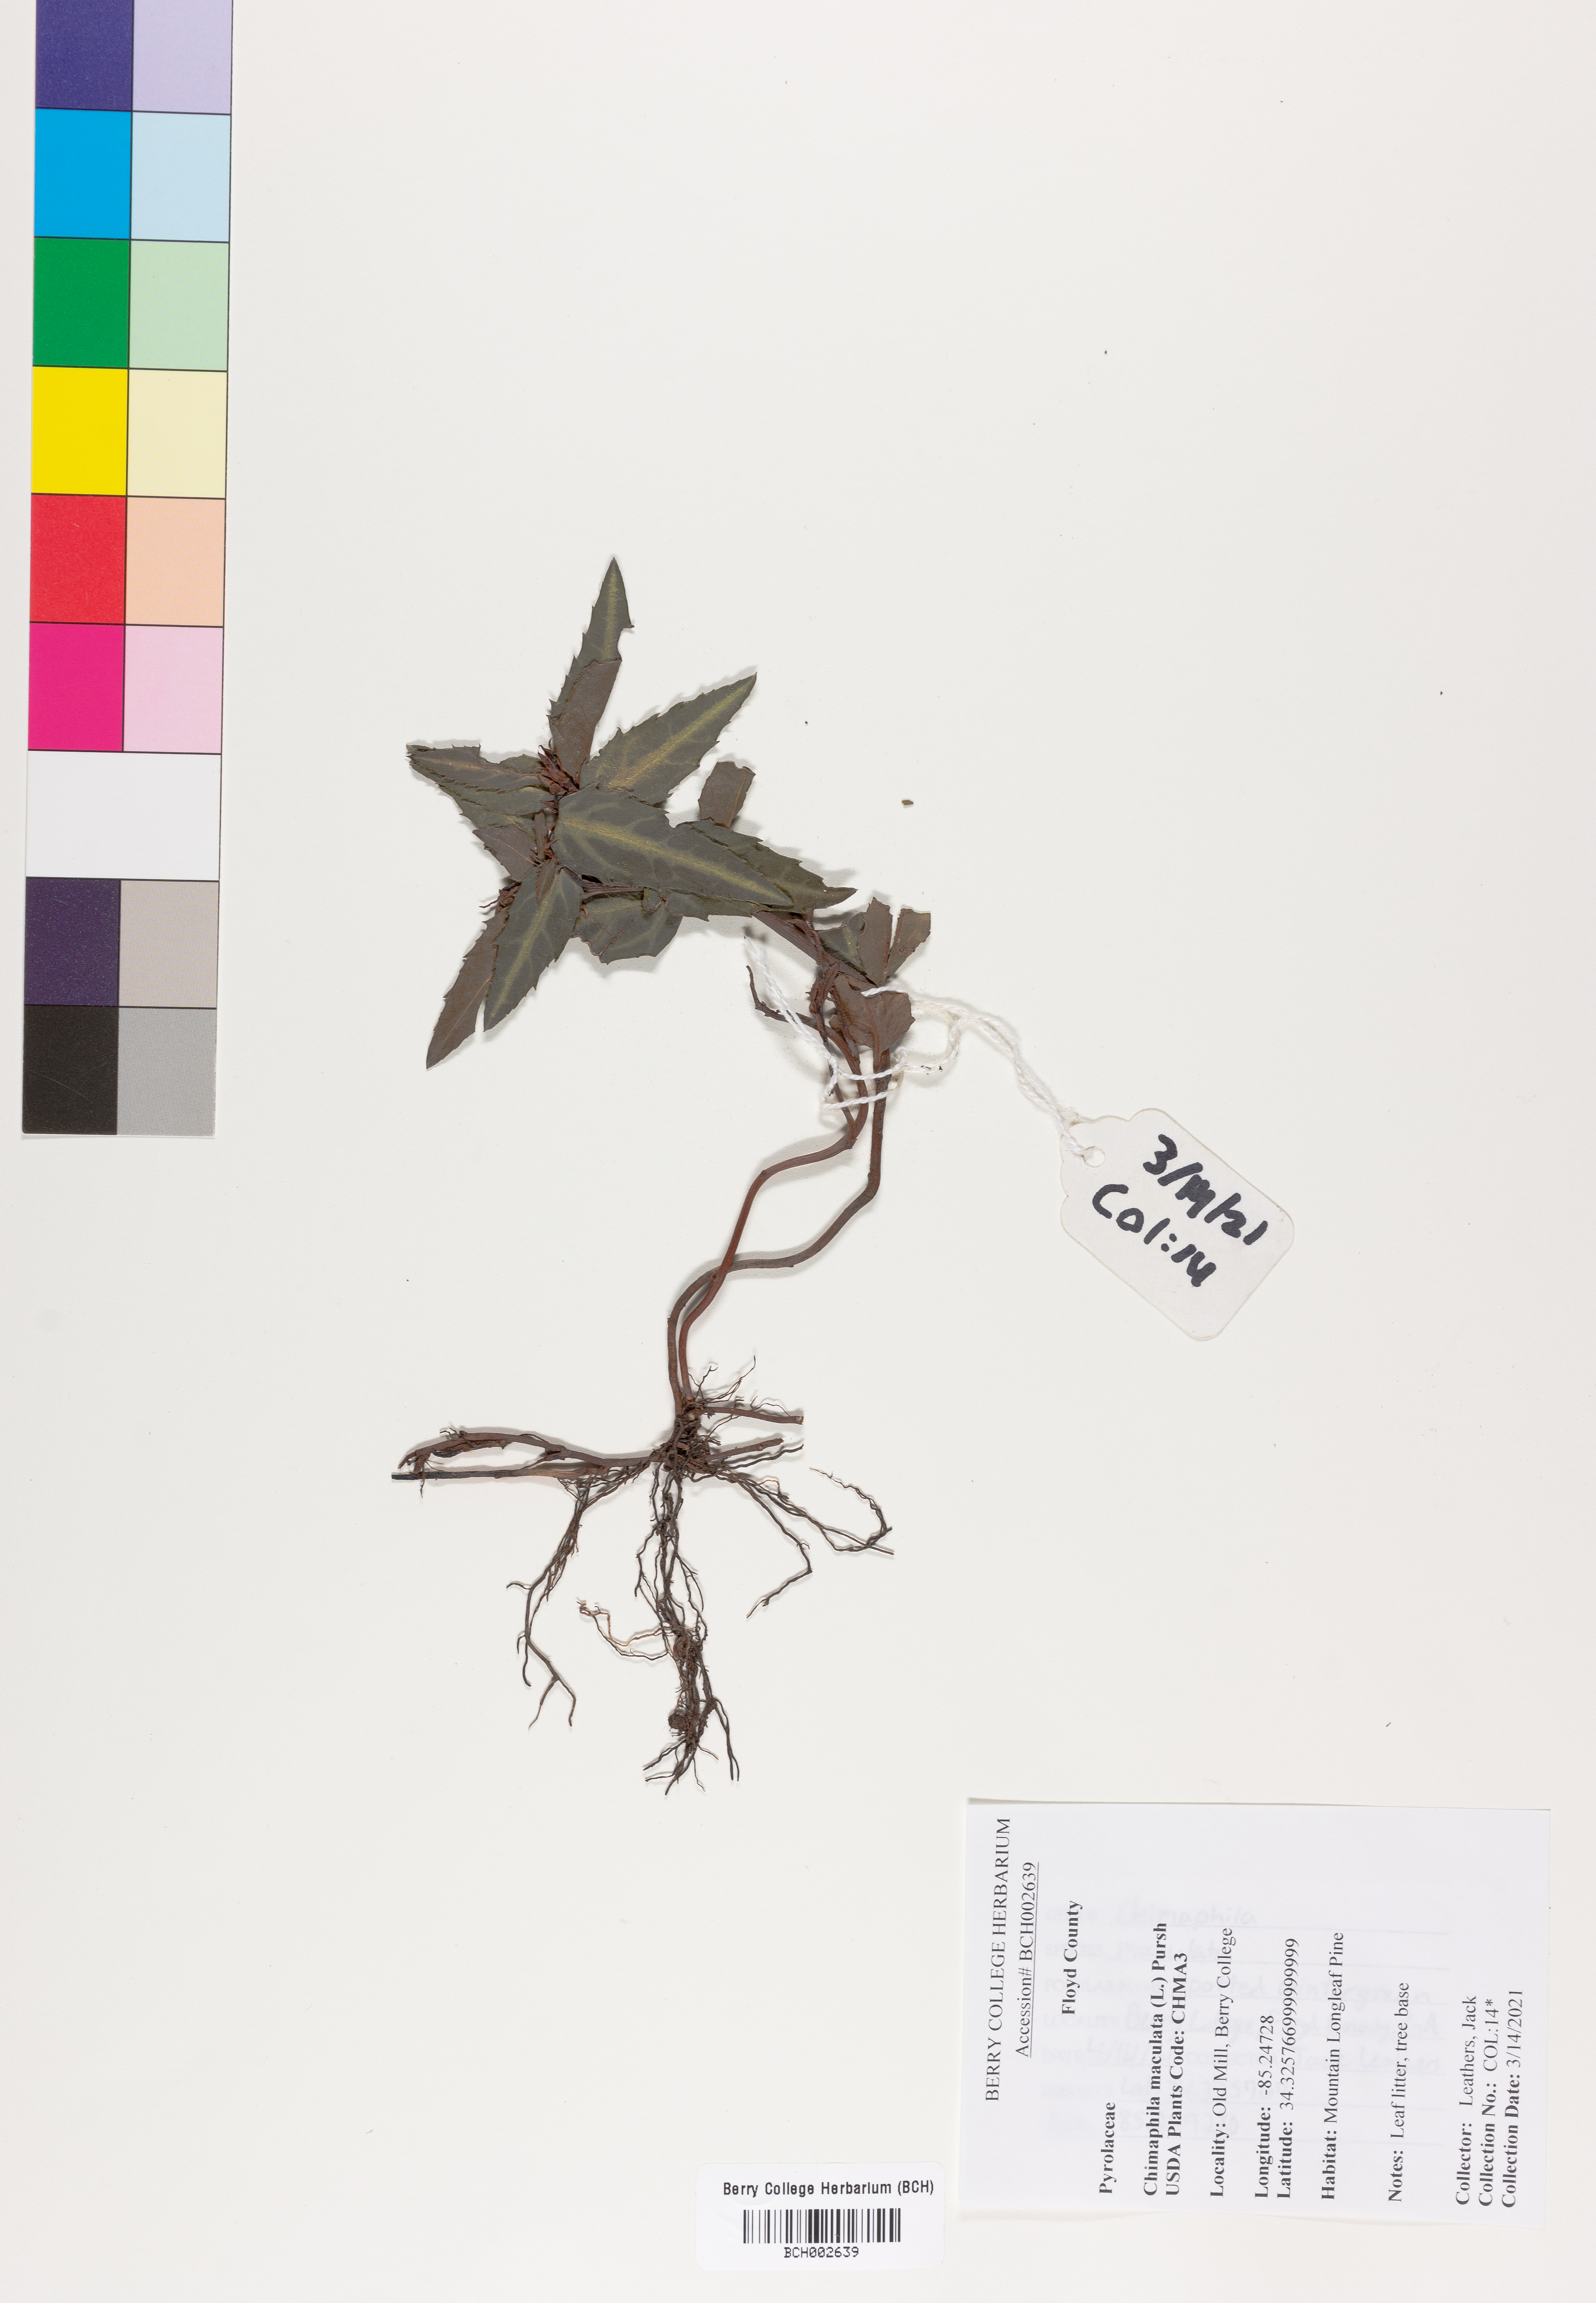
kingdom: Plantae
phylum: Tracheophyta
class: Magnoliopsida
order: Ericales
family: Ericaceae
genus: Chimaphila
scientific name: Chimaphila maculata
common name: Spotted pipsissewa
